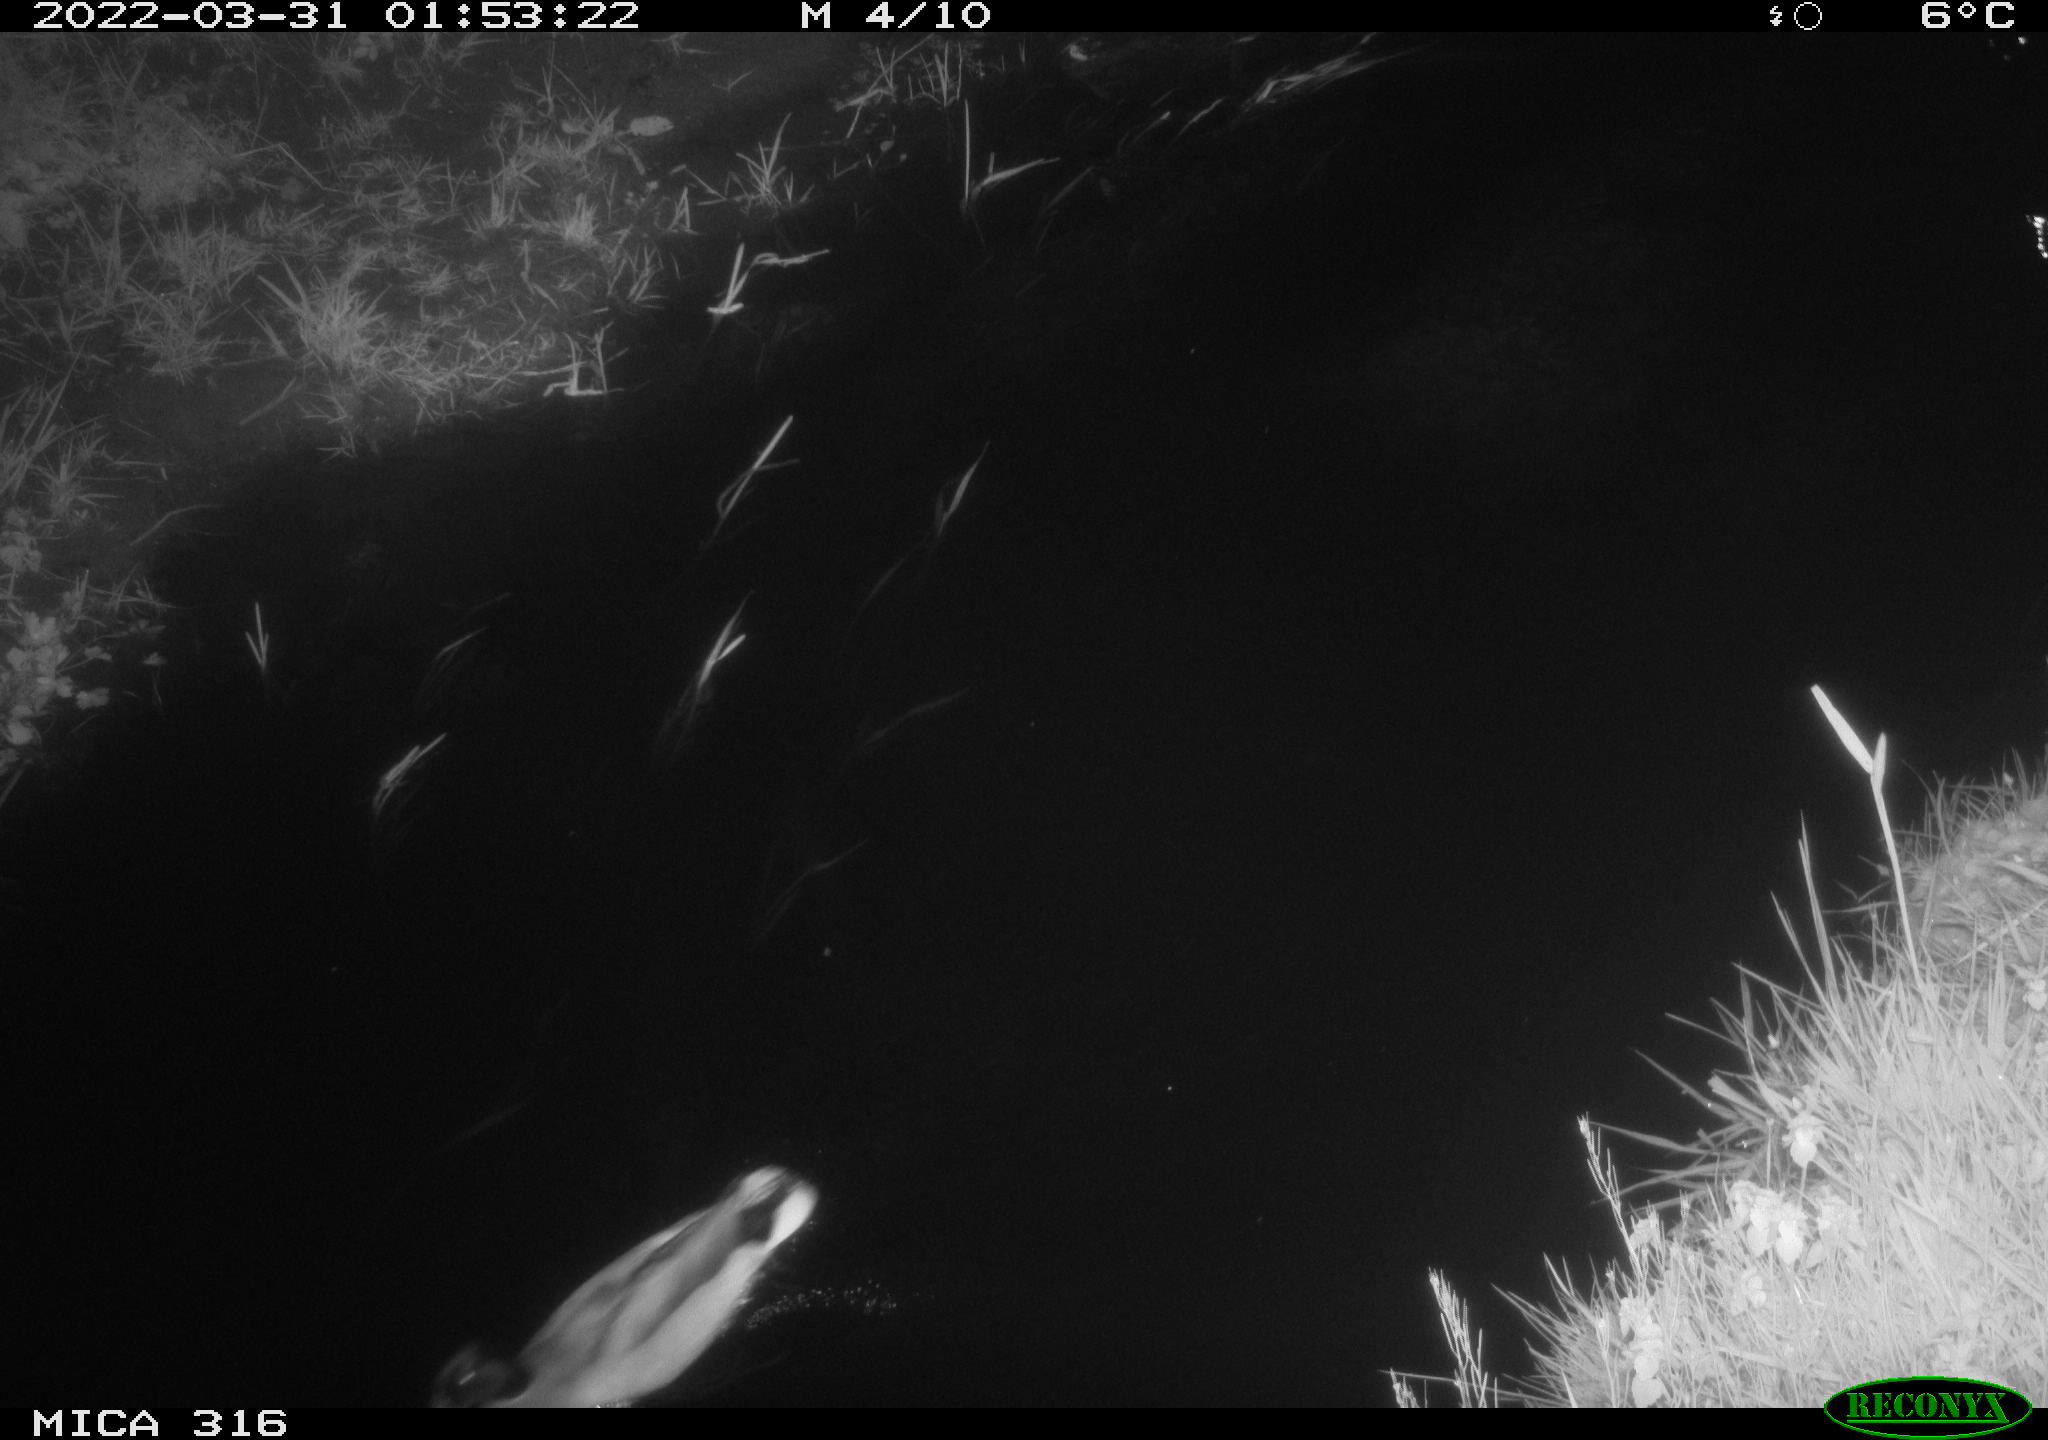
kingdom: Animalia
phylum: Chordata
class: Aves
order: Anseriformes
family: Anatidae
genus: Anas
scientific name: Anas platyrhynchos
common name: Mallard
